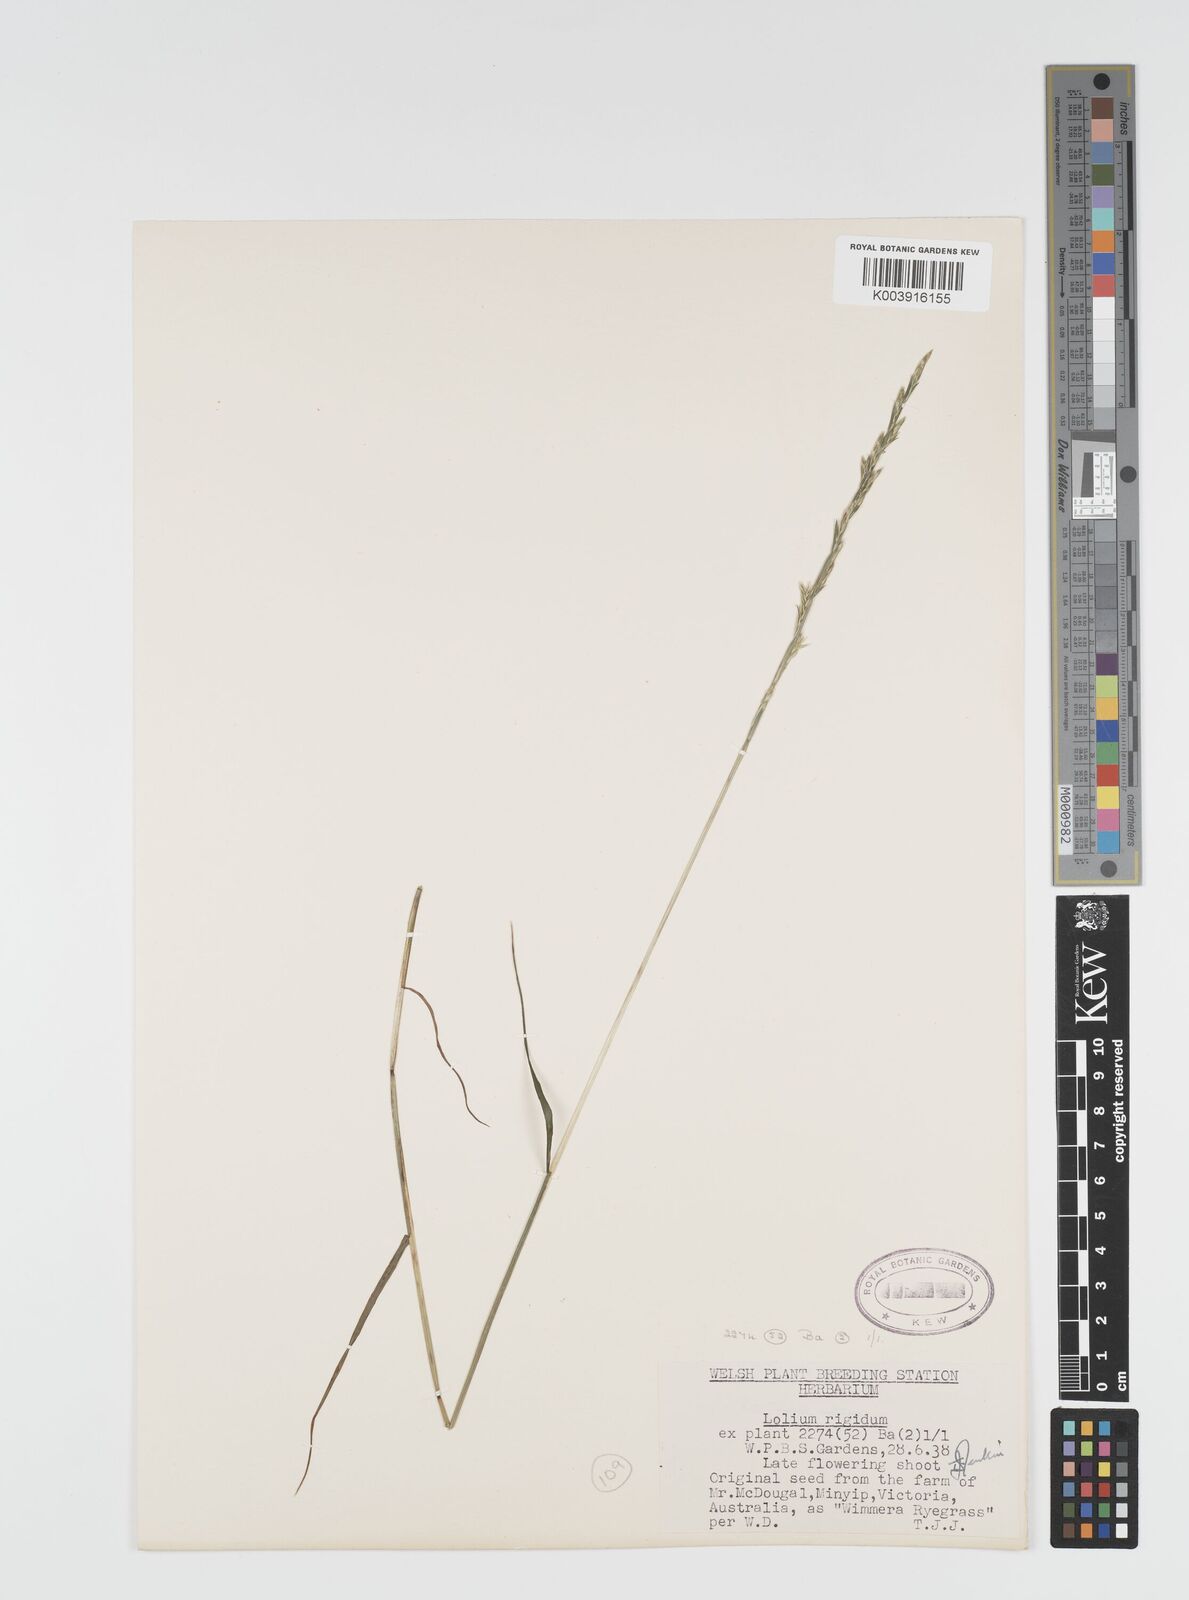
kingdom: Plantae
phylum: Tracheophyta
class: Liliopsida
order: Poales
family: Poaceae
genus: Lolium
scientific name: Lolium rigidum
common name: Wimmera ryegrass
